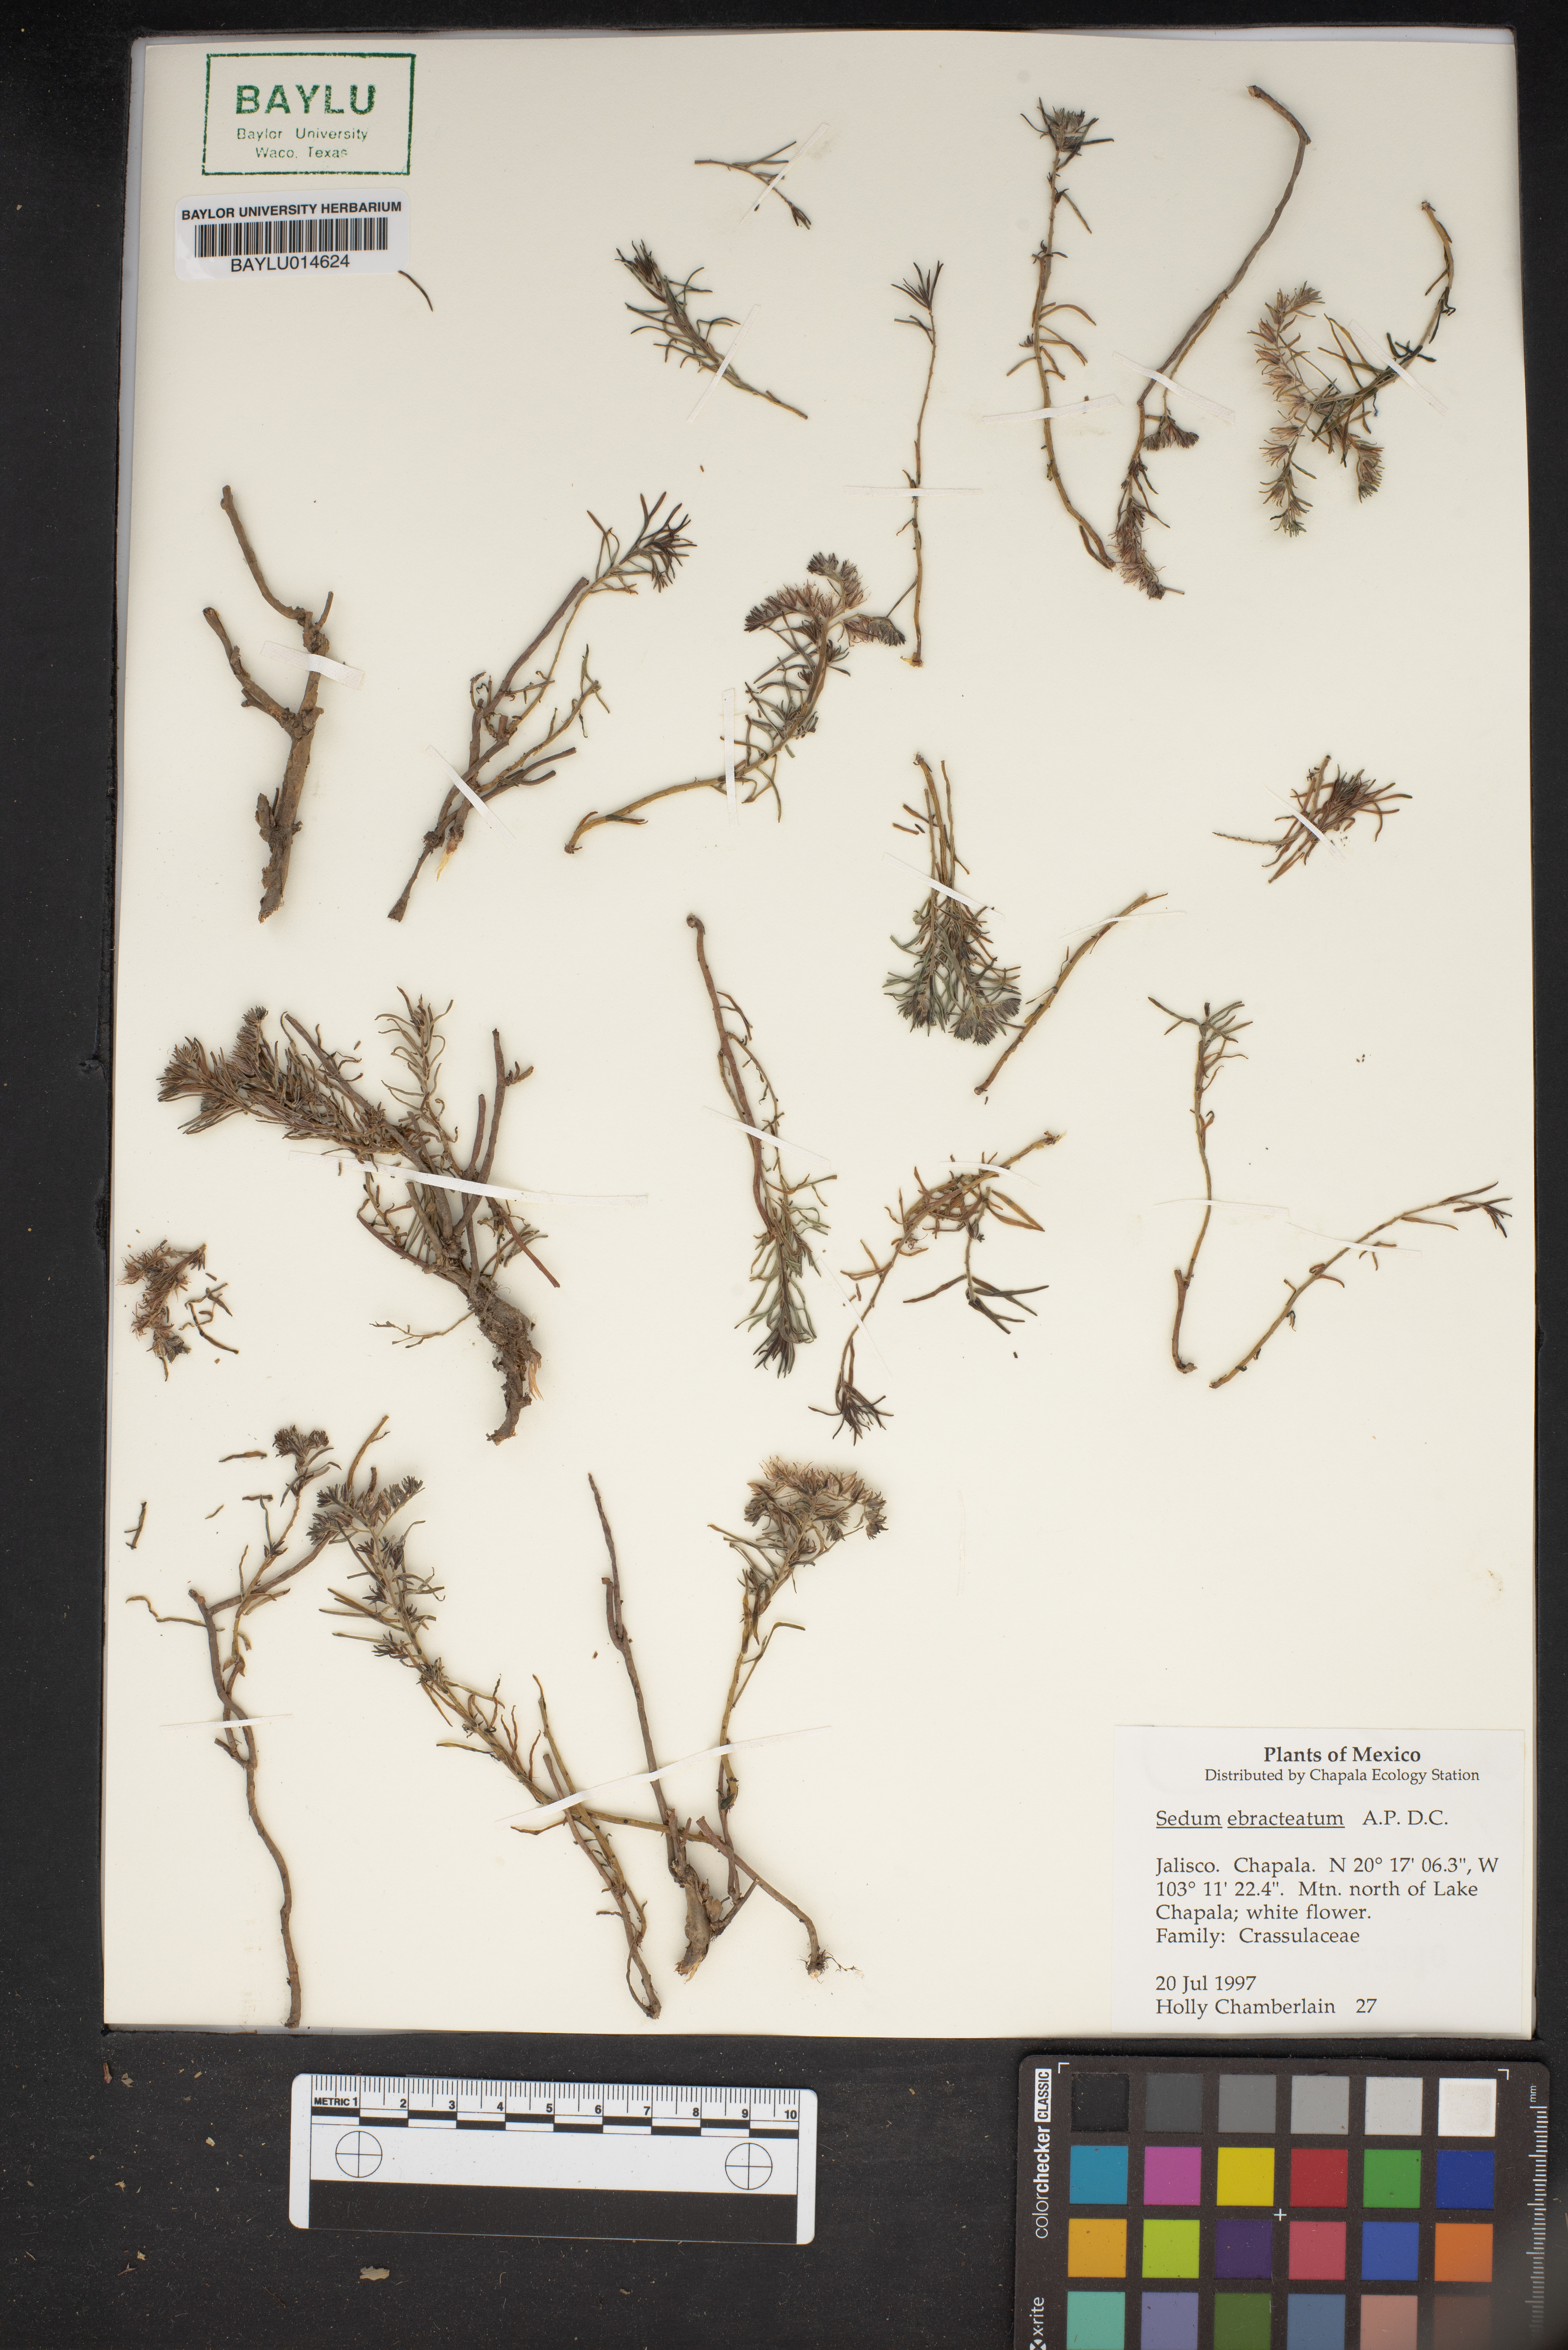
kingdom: Plantae
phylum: Tracheophyta
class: Magnoliopsida
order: Saxifragales
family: Crassulaceae
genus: Sedum
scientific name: Sedum ebracteatum
